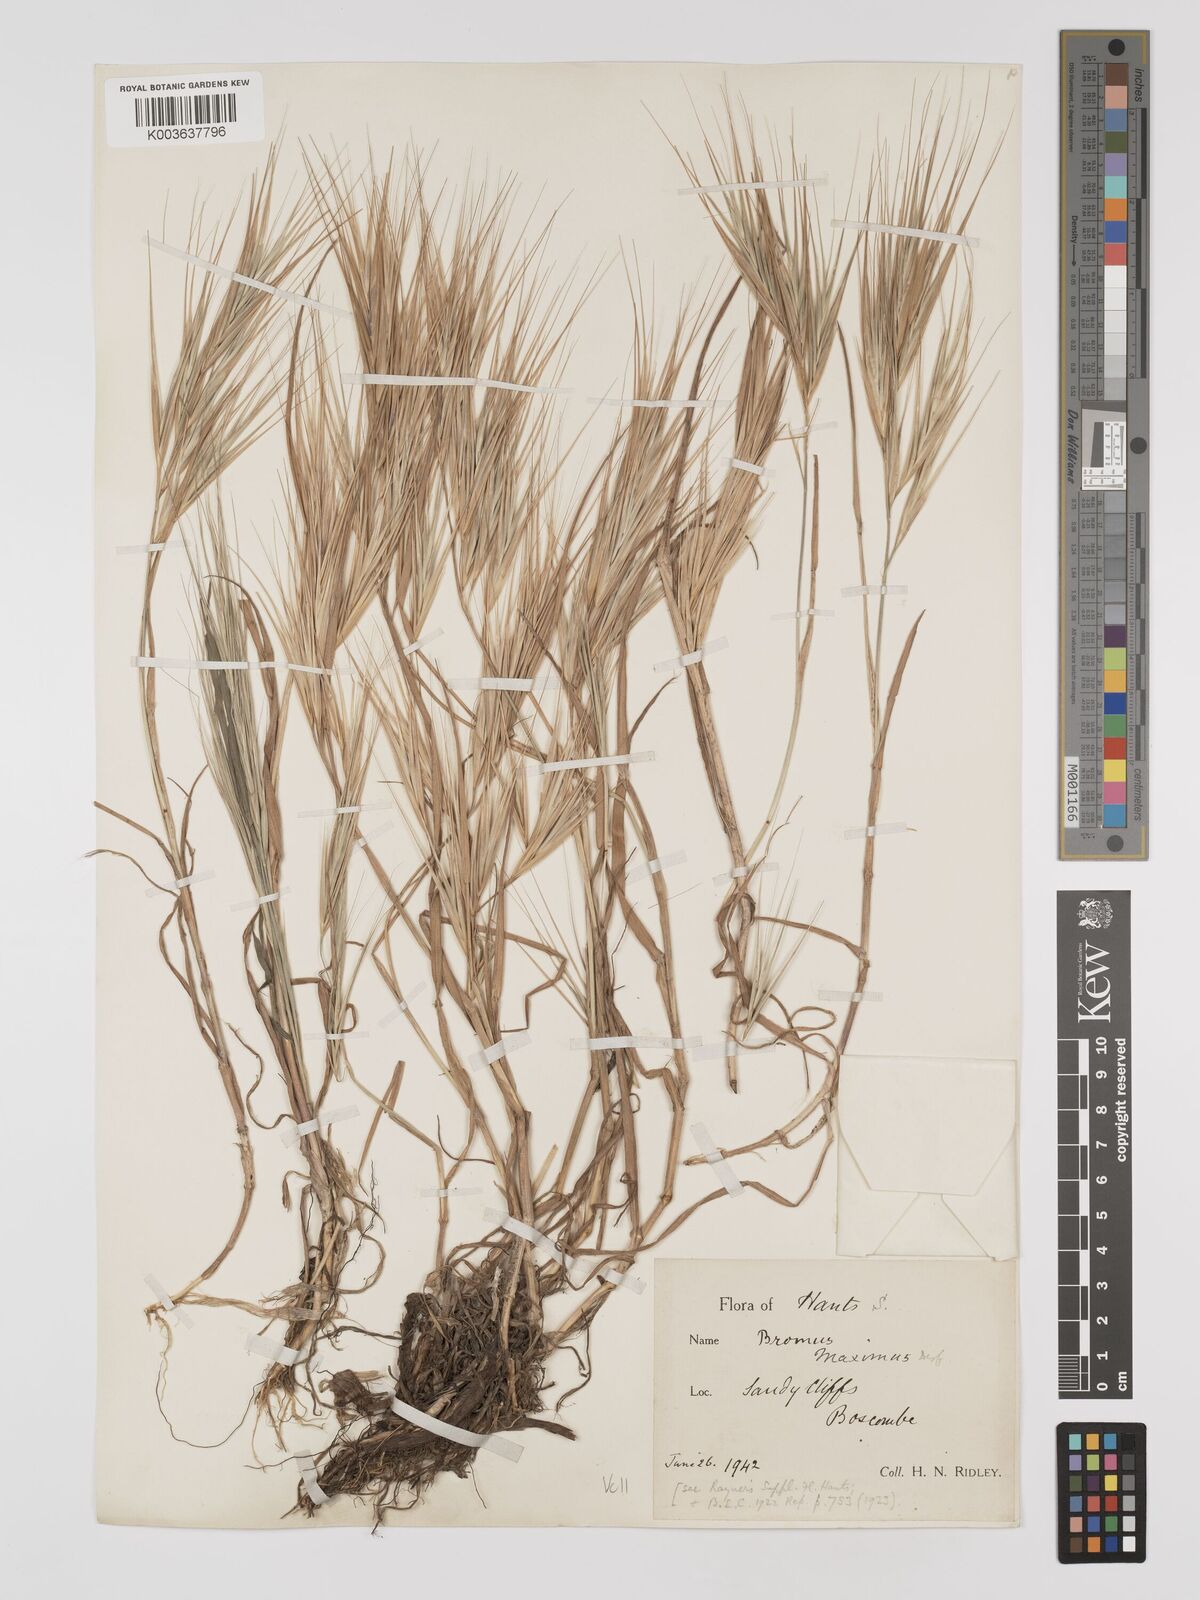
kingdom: Plantae
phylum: Tracheophyta
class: Liliopsida
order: Poales
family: Poaceae
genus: Bromus
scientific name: Bromus
